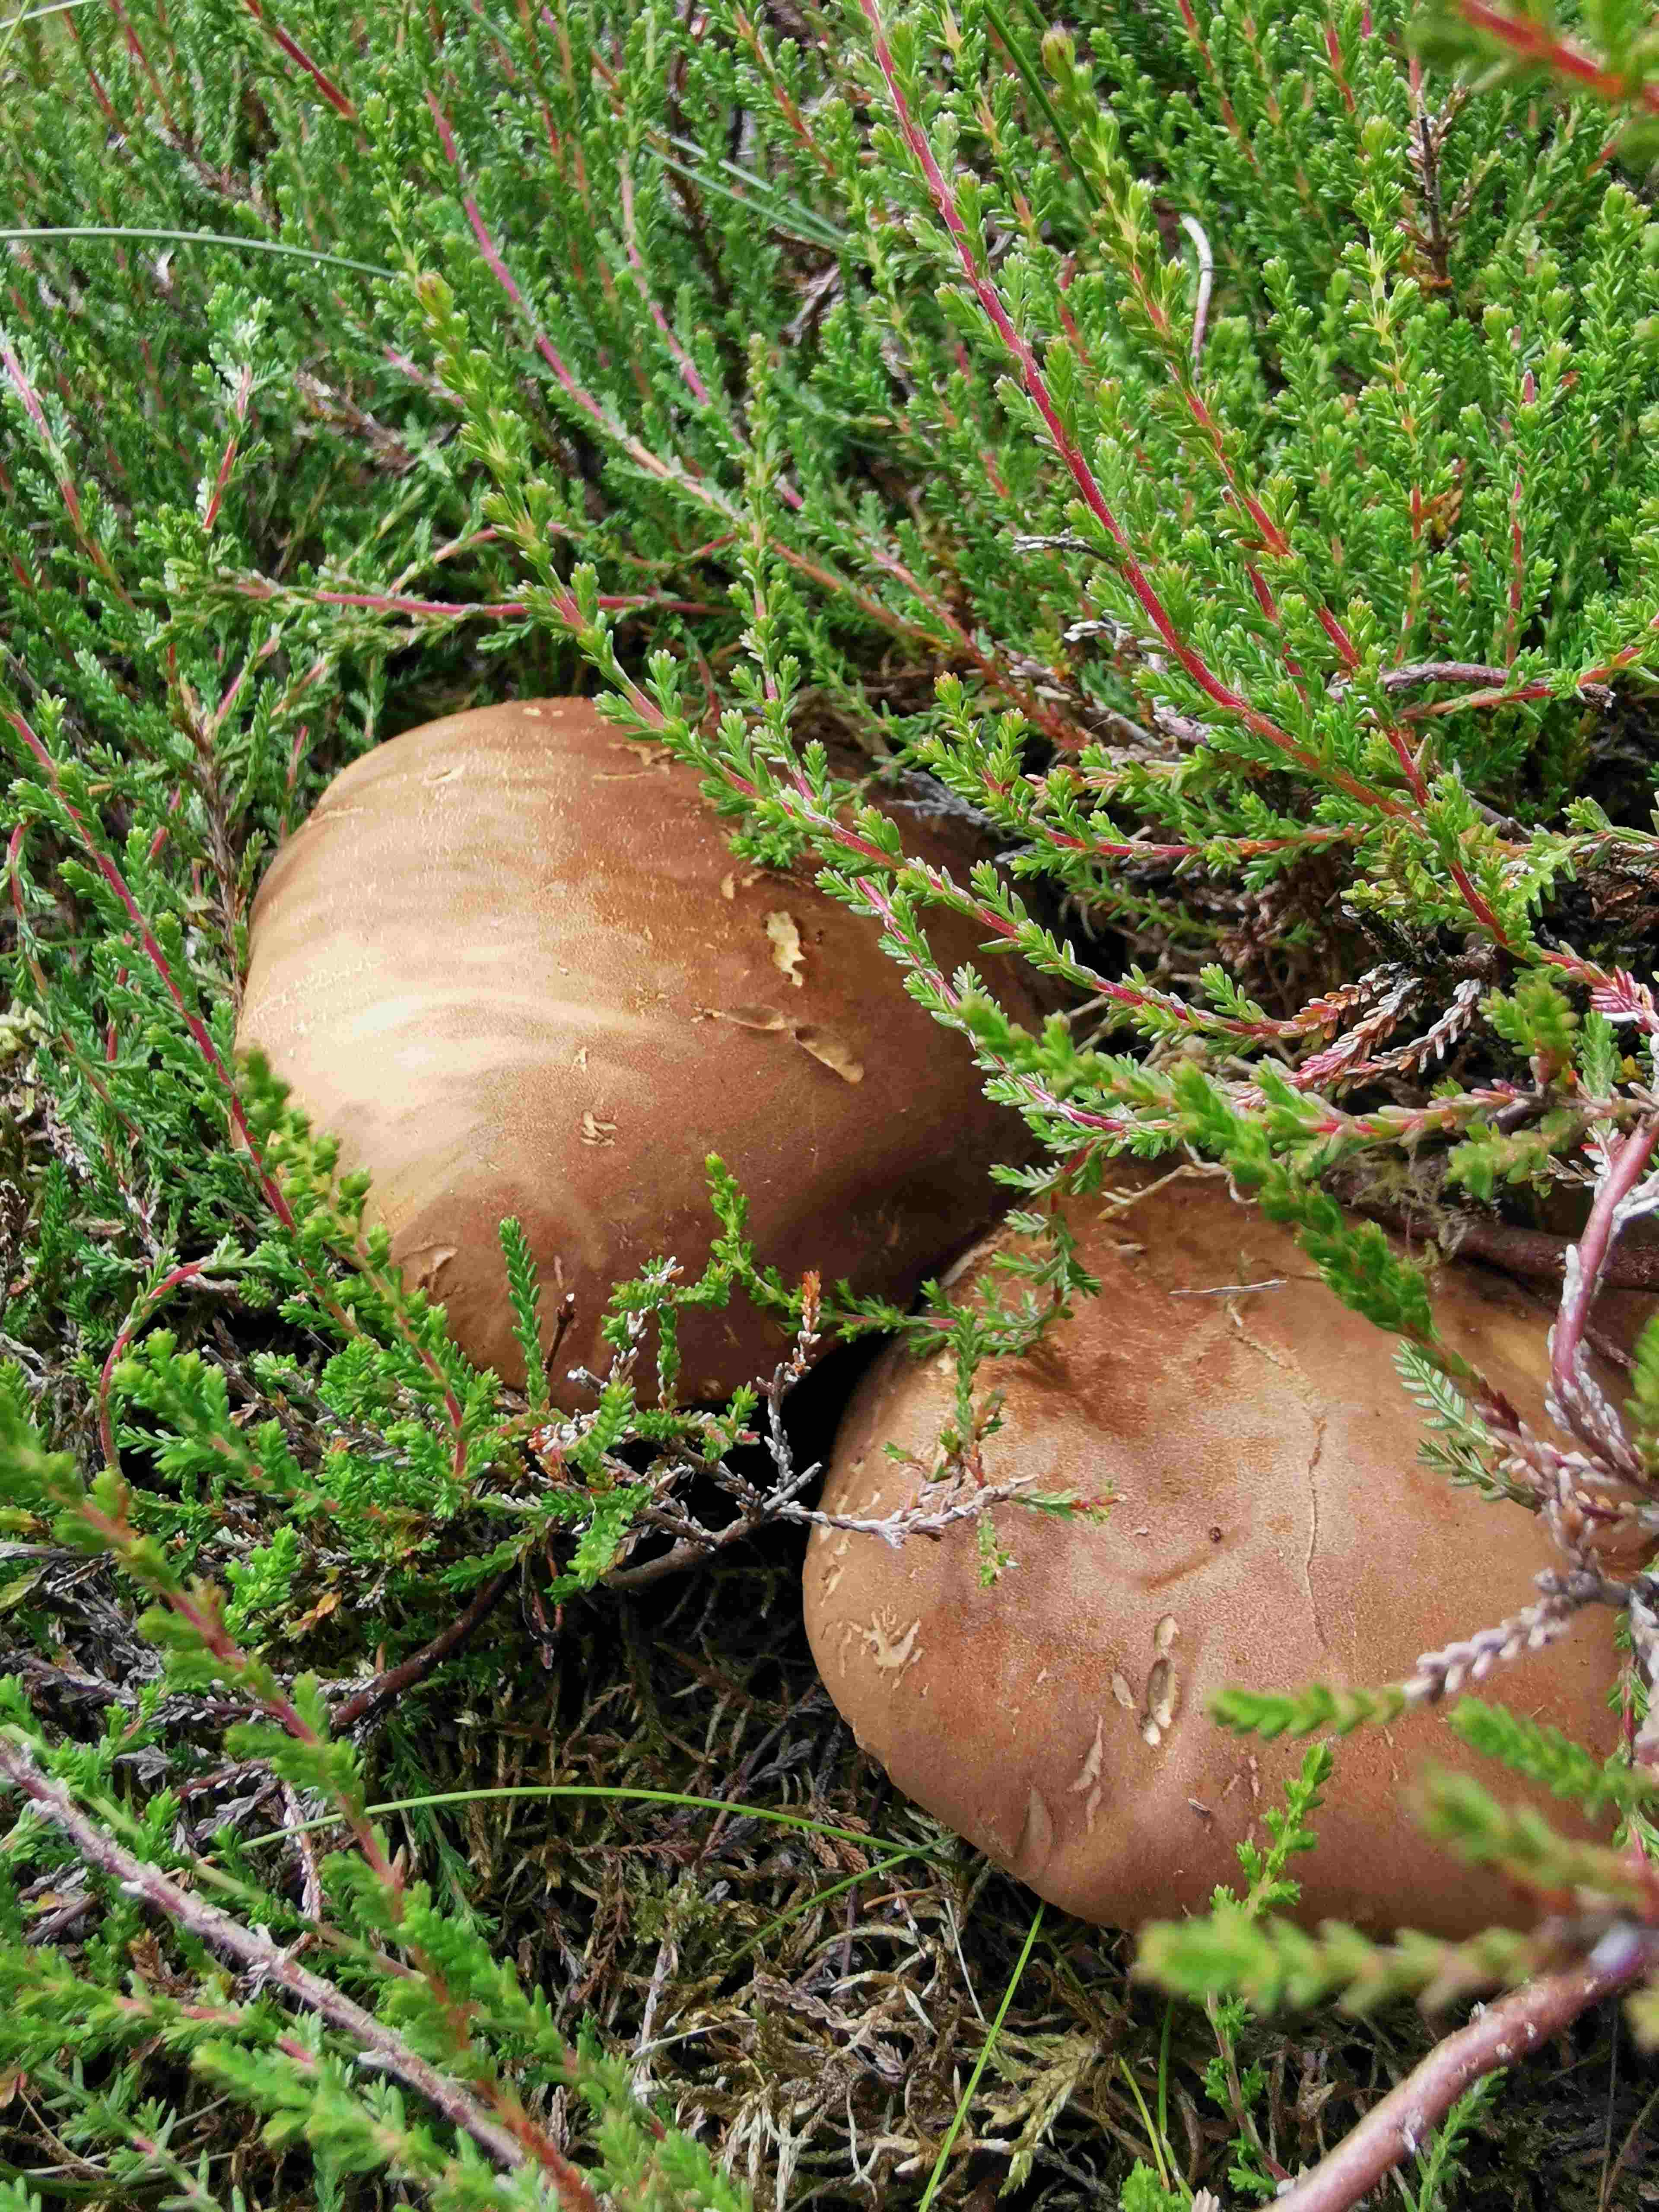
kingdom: Fungi
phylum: Basidiomycota
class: Agaricomycetes
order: Boletales
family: Tapinellaceae
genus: Tapinella
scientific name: Tapinella atrotomentosa
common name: sortfiltet viftesvamp
